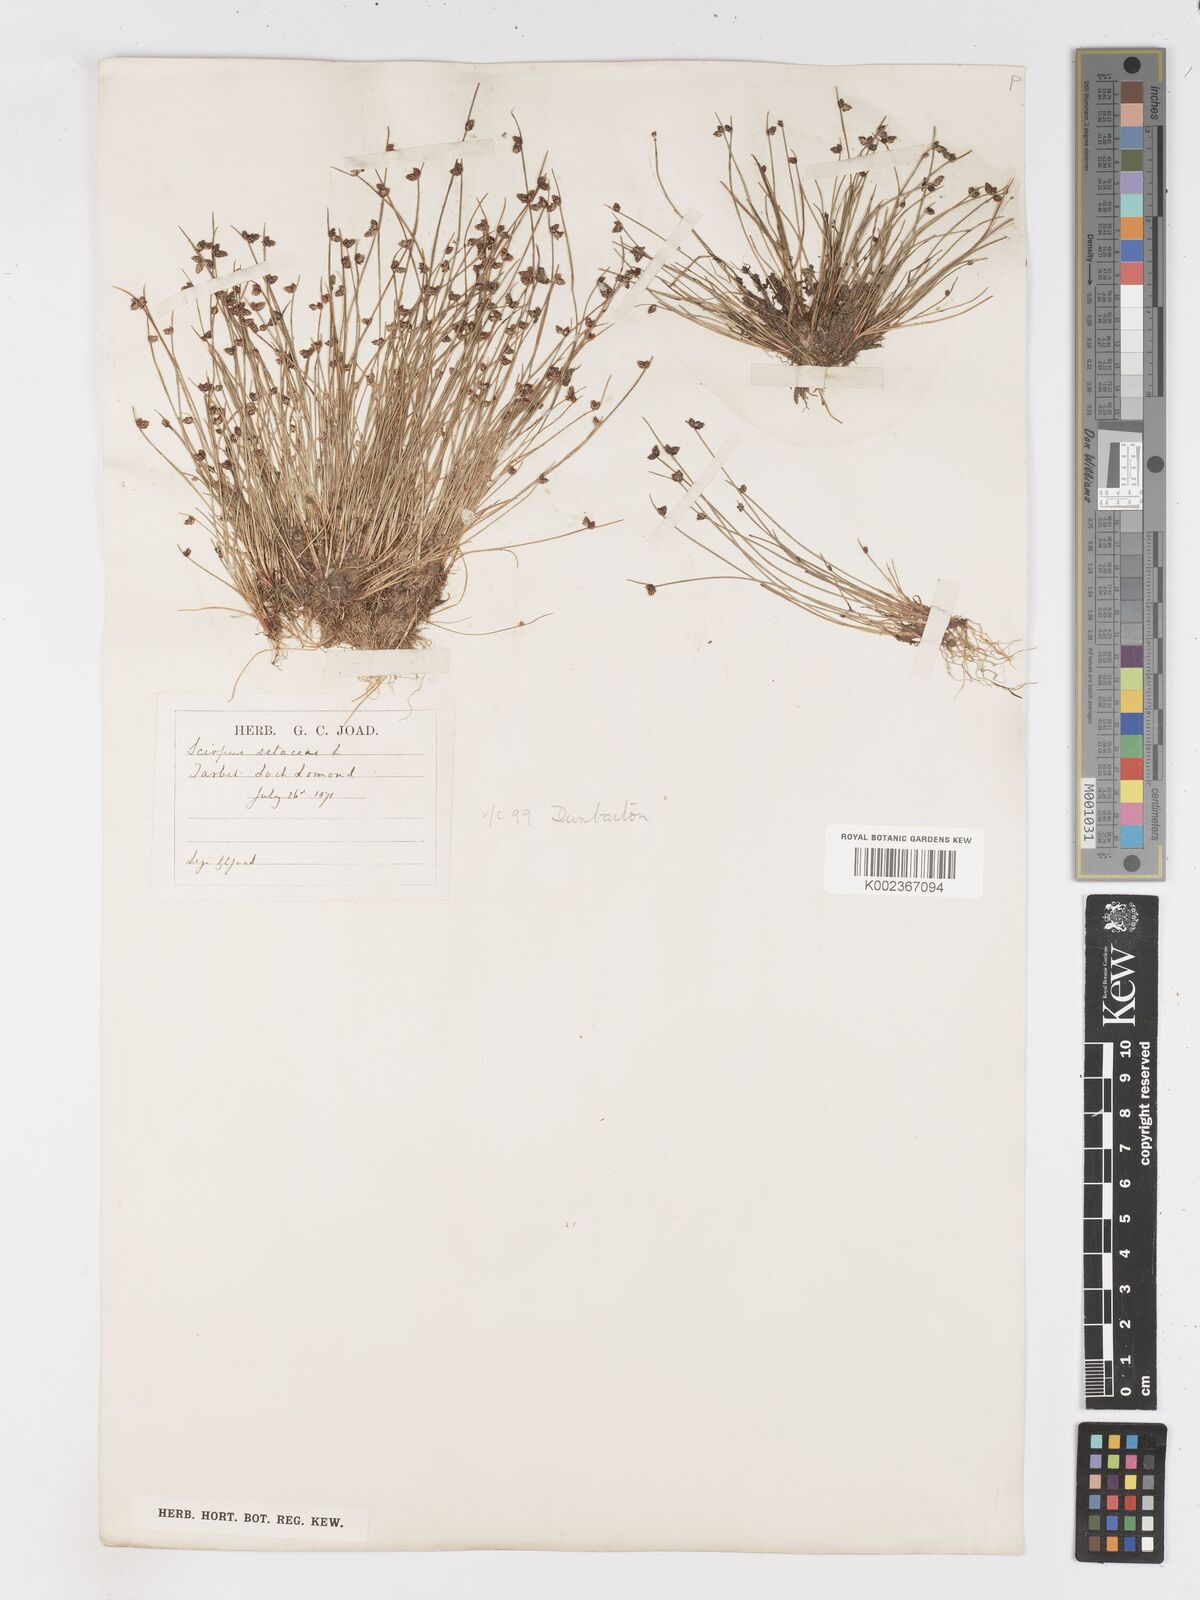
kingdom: Plantae
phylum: Tracheophyta
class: Liliopsida
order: Poales
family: Cyperaceae
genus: Isolepis
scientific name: Isolepis setacea
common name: Bristle club-rush
